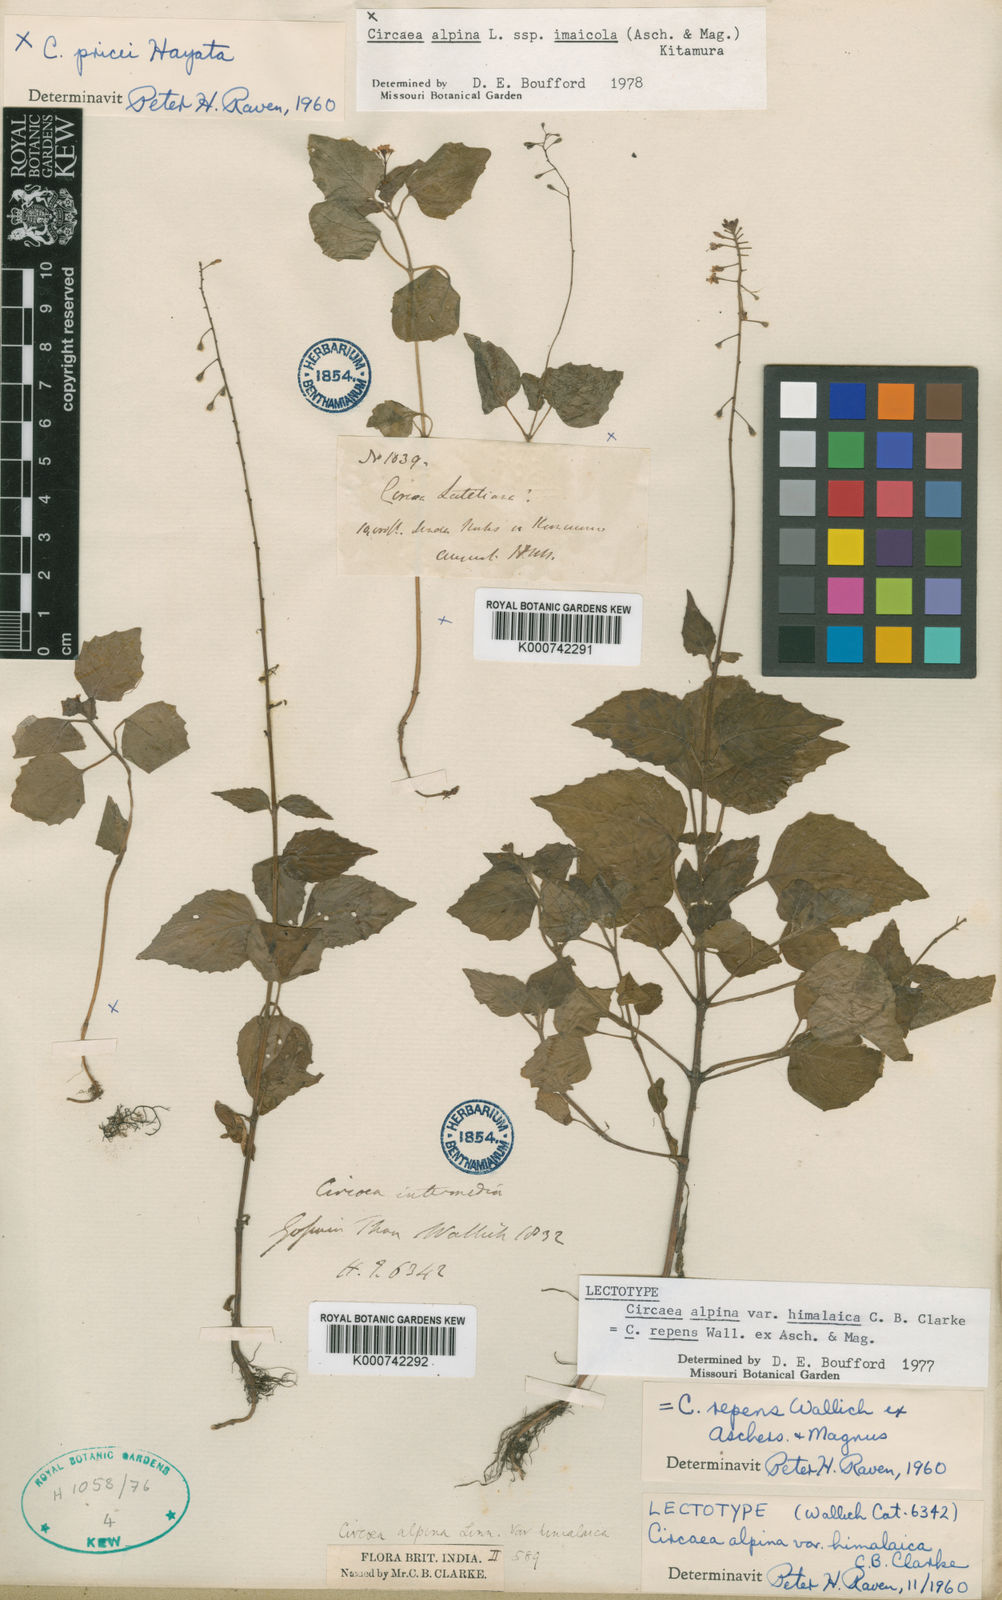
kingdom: Plantae
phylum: Tracheophyta
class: Magnoliopsida
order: Myrtales
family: Onagraceae
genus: Circaea
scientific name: Circaea
